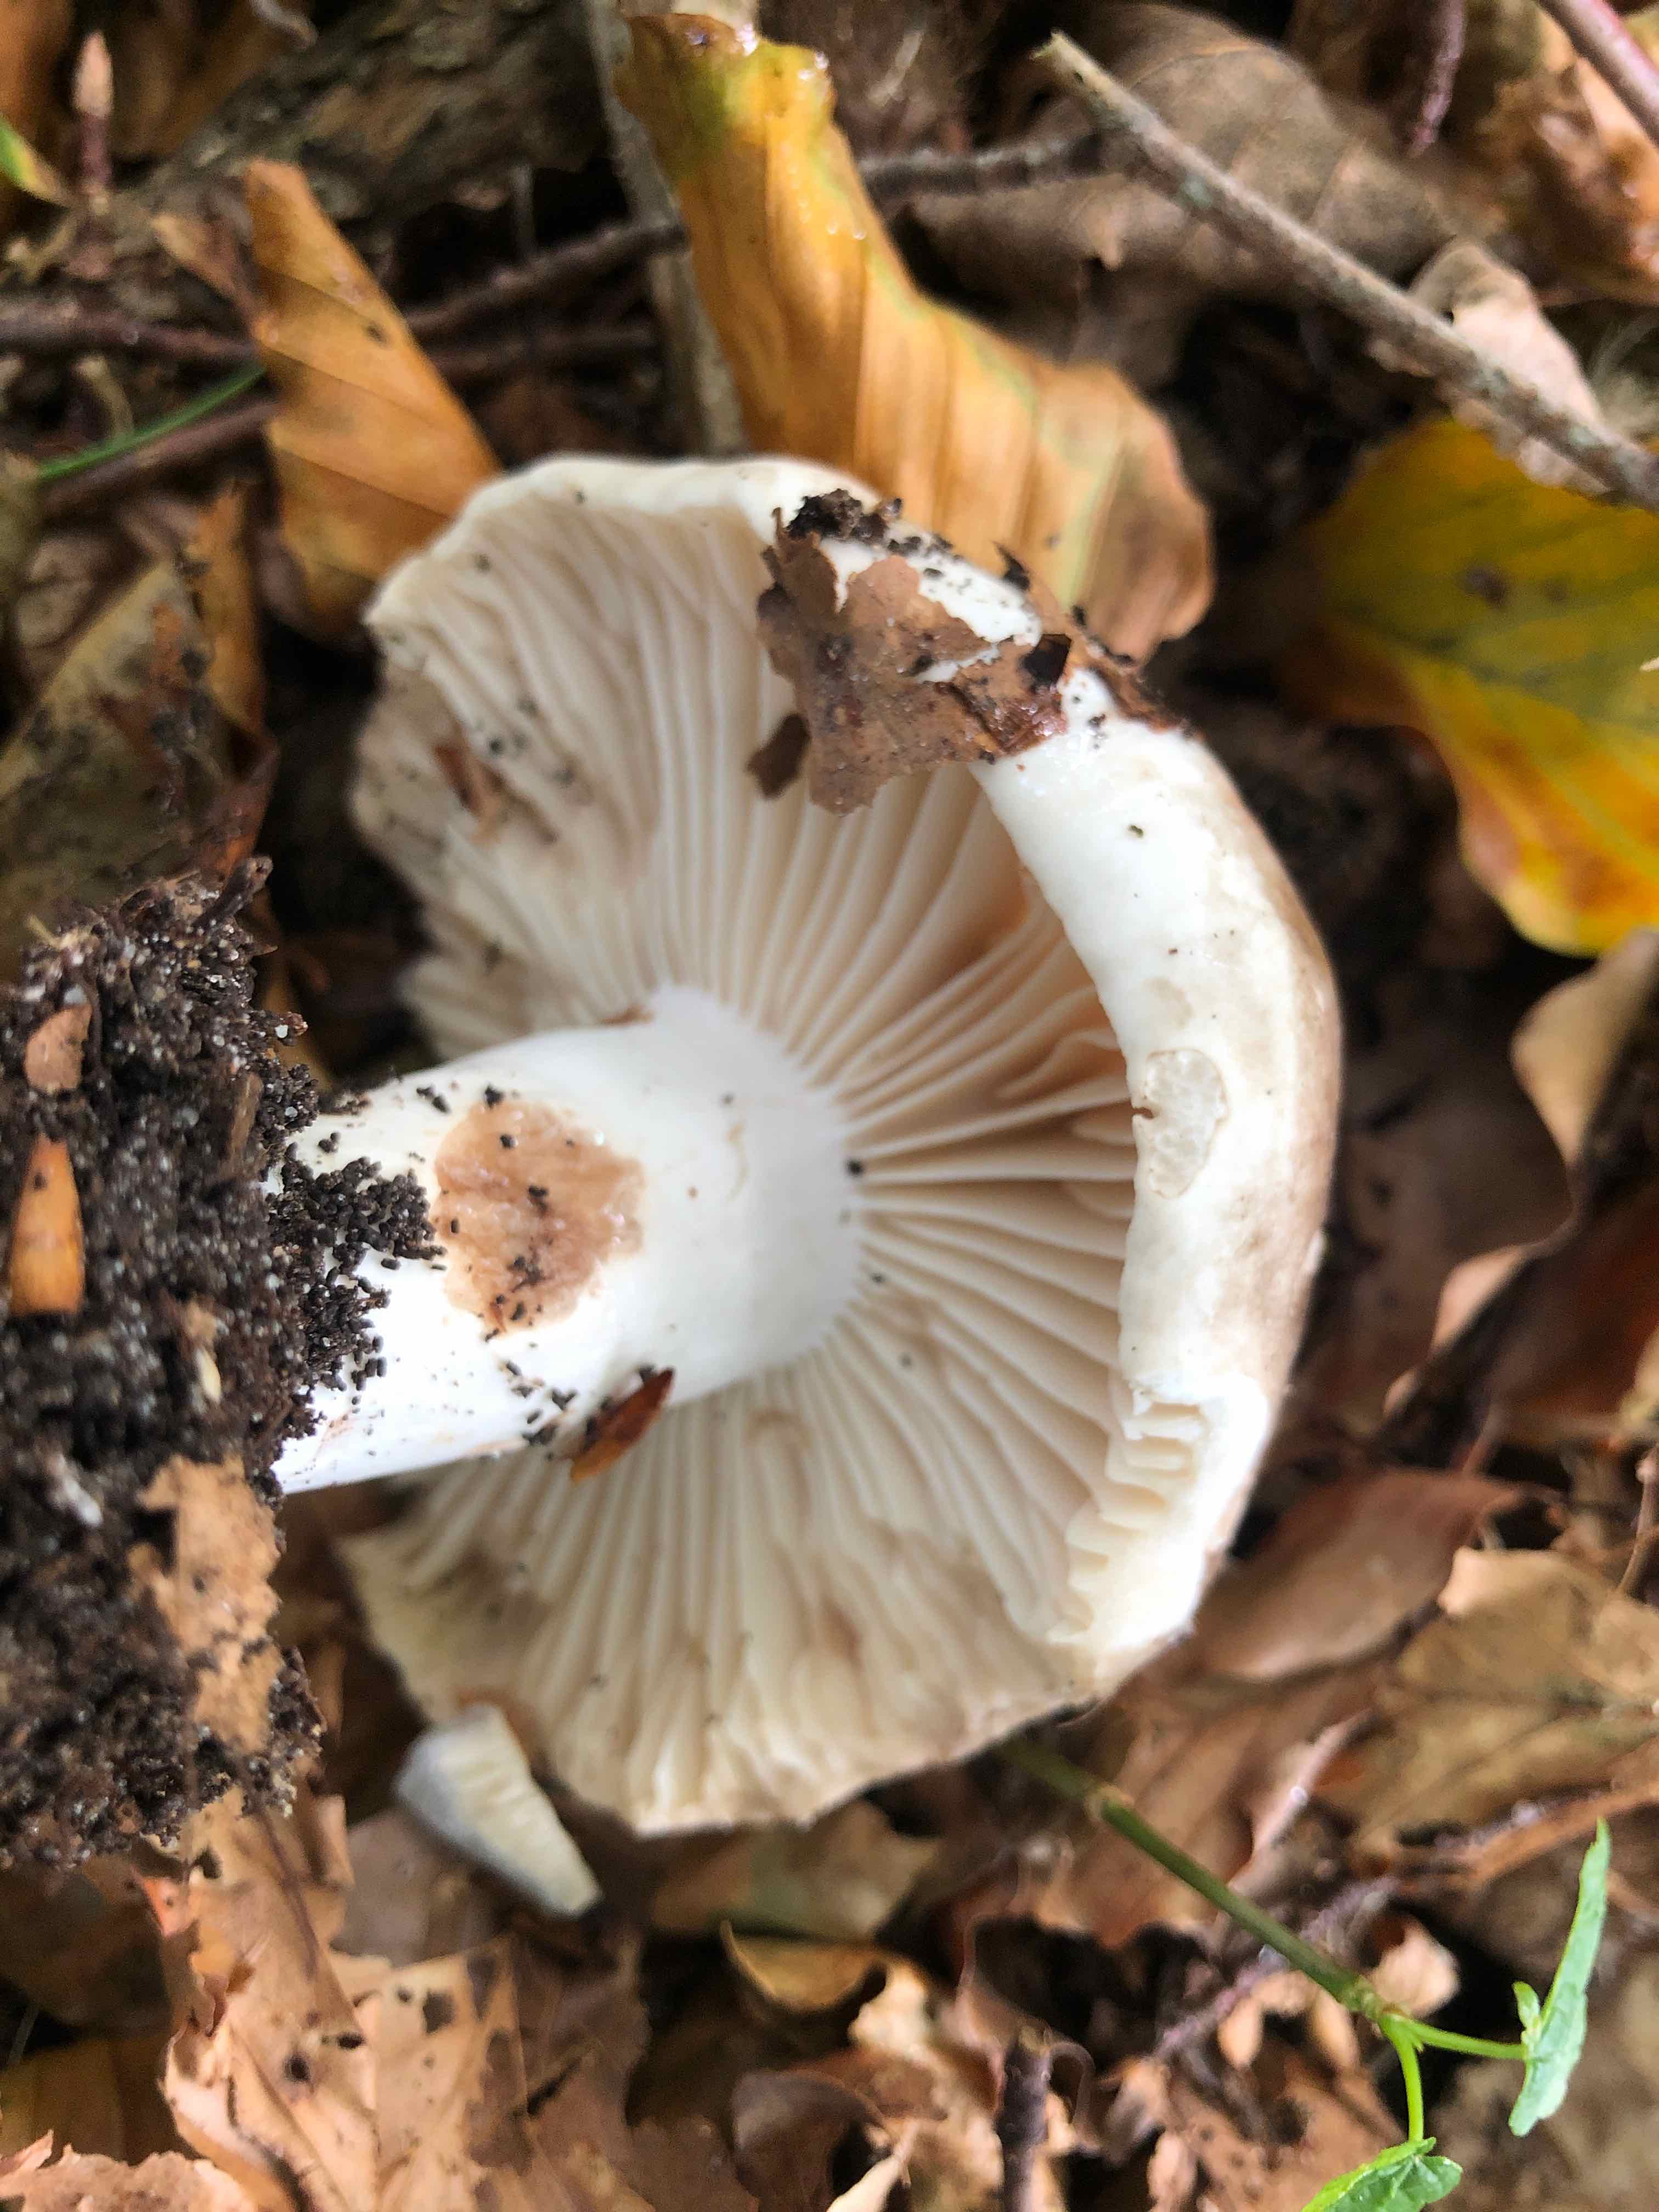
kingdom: Fungi
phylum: Basidiomycota
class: Agaricomycetes
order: Russulales
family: Russulaceae
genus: Russula
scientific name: Russula adusta
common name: sværtende skørhat
